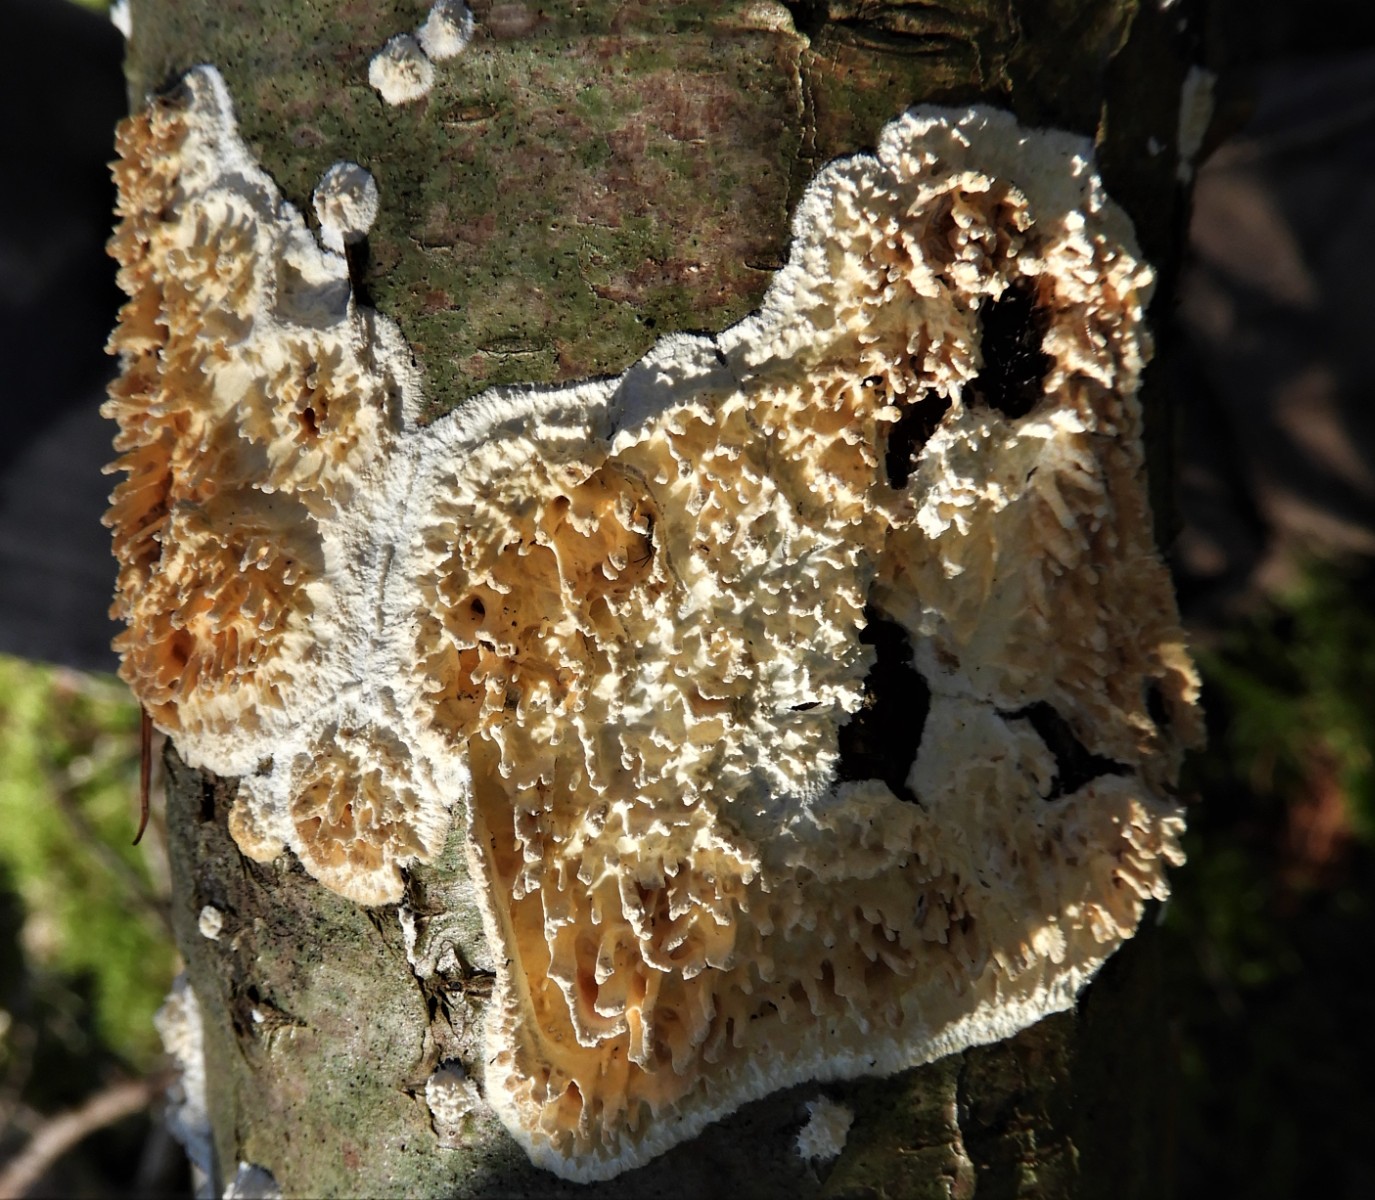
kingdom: Fungi
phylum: Basidiomycota
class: Agaricomycetes
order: Hymenochaetales
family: Schizoporaceae
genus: Xylodon
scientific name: Xylodon radula
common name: grovtandet kalkskind
